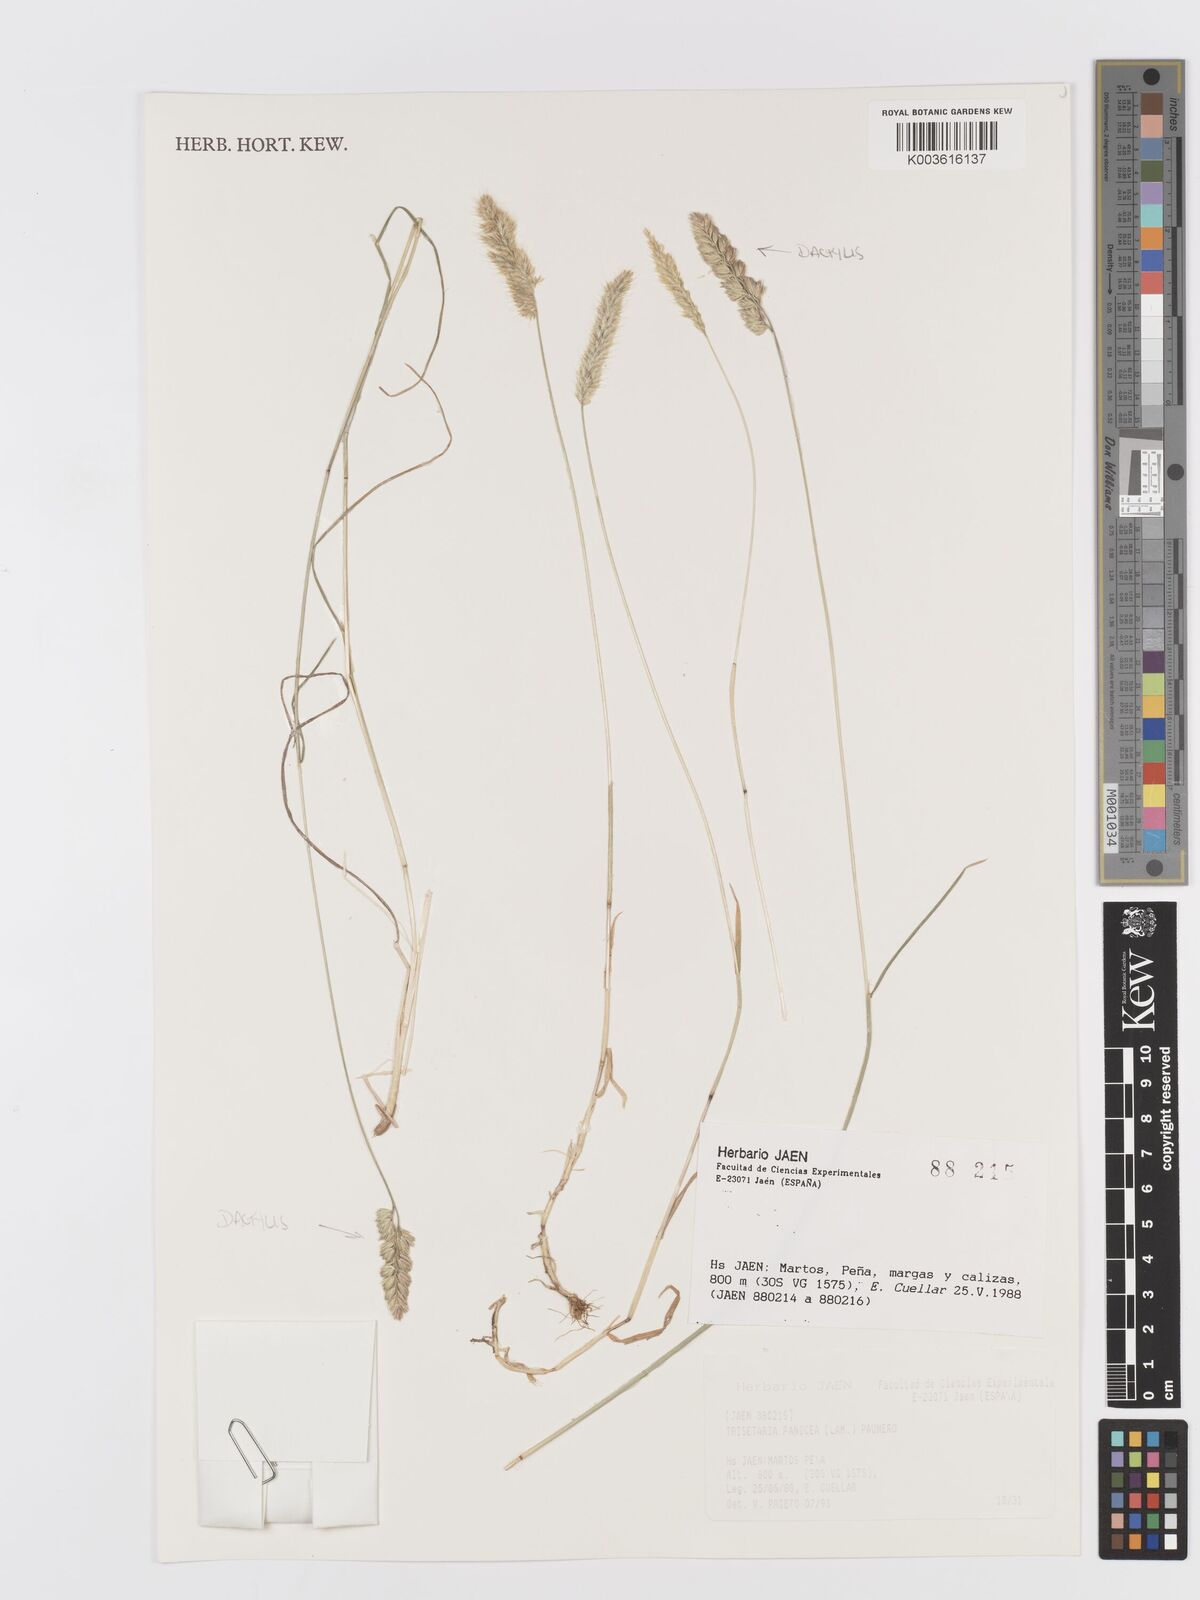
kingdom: Plantae
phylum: Tracheophyta
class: Liliopsida
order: Poales
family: Poaceae
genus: Trisetaria
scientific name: Trisetaria panicea
